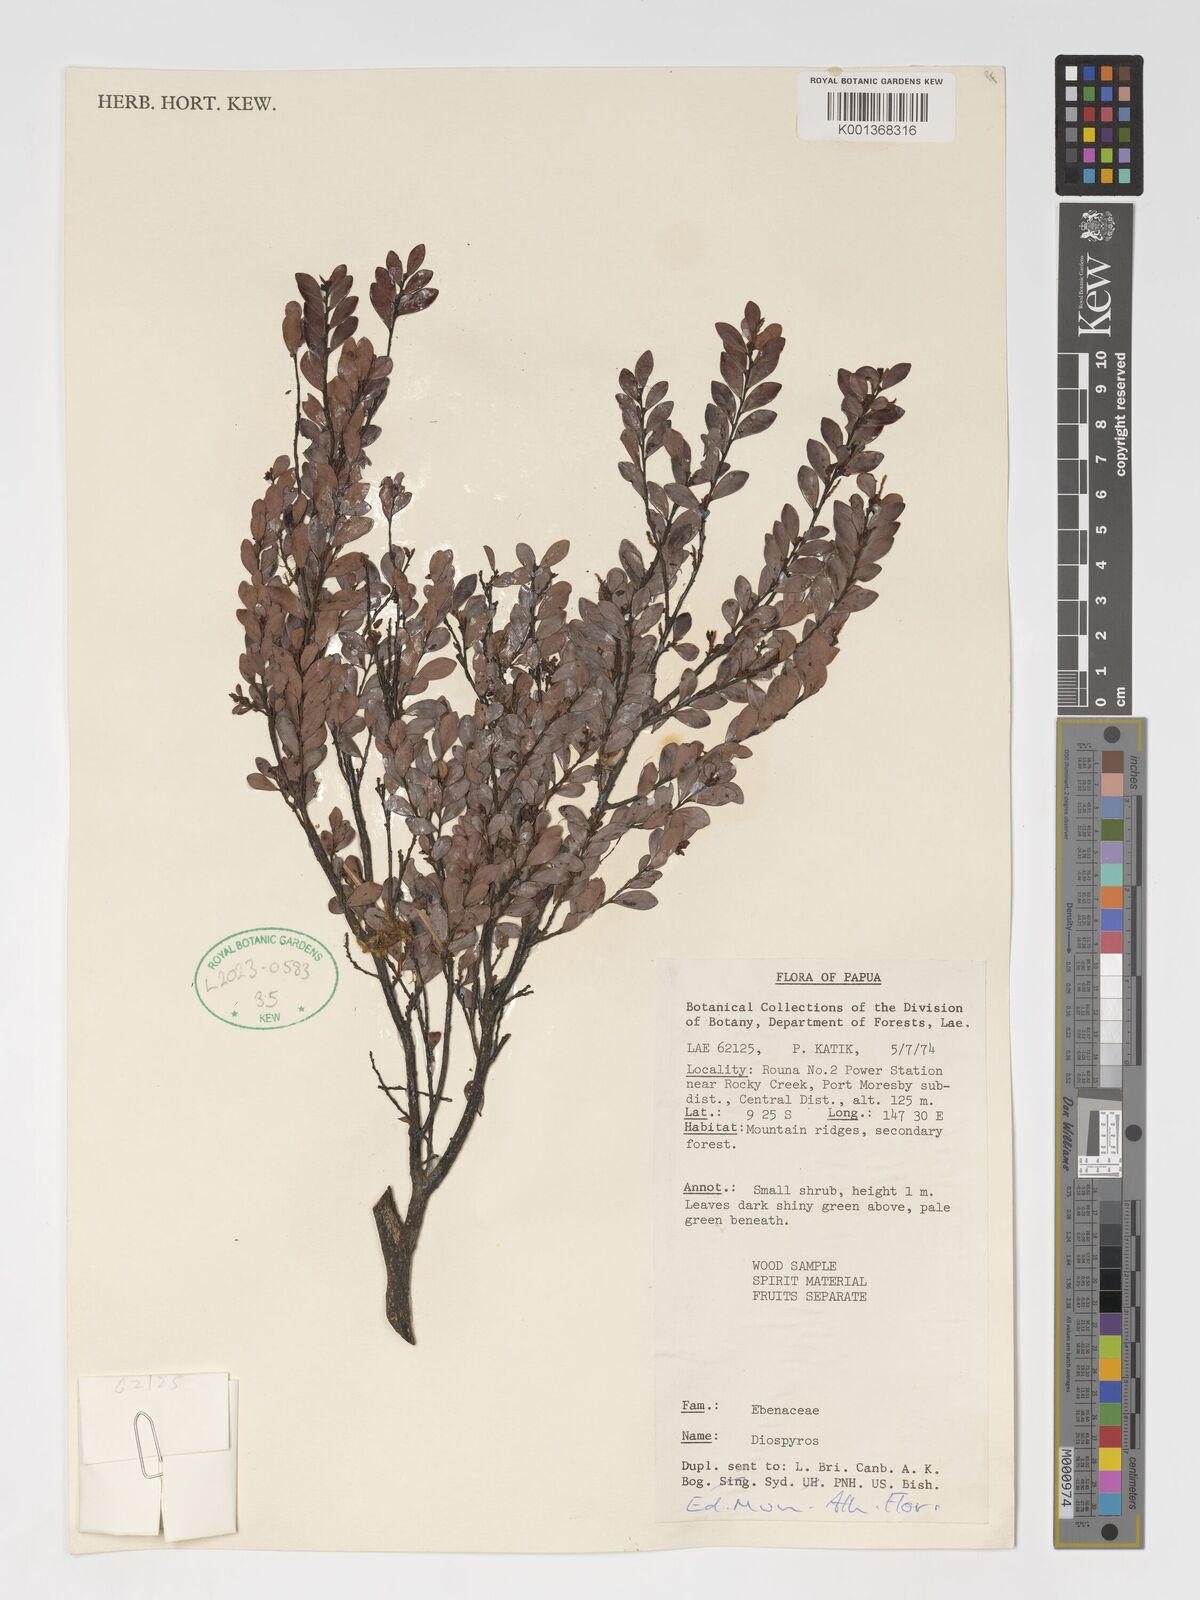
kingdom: Plantae
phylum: Tracheophyta
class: Magnoliopsida
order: Ericales
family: Ebenaceae
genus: Diospyros
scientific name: Diospyros
